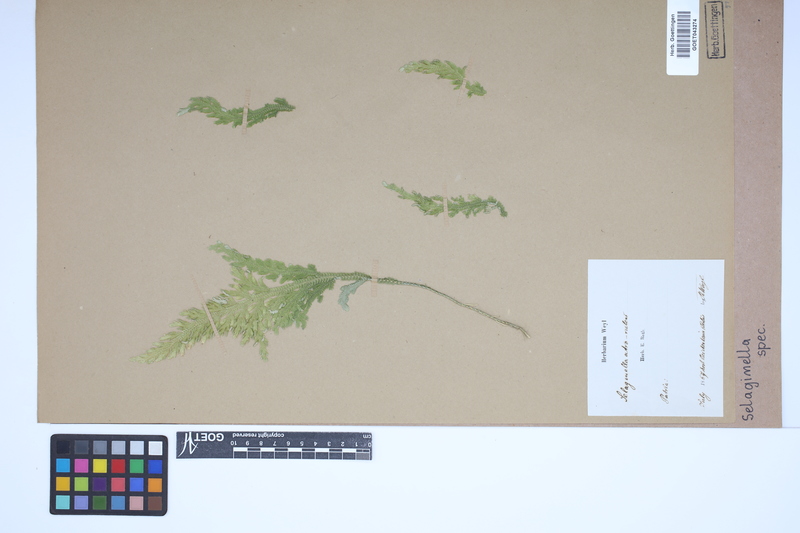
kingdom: Plantae
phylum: Tracheophyta
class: Lycopodiopsida
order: Selaginellales
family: Selaginellaceae
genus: Selaginella
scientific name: Selaginella
